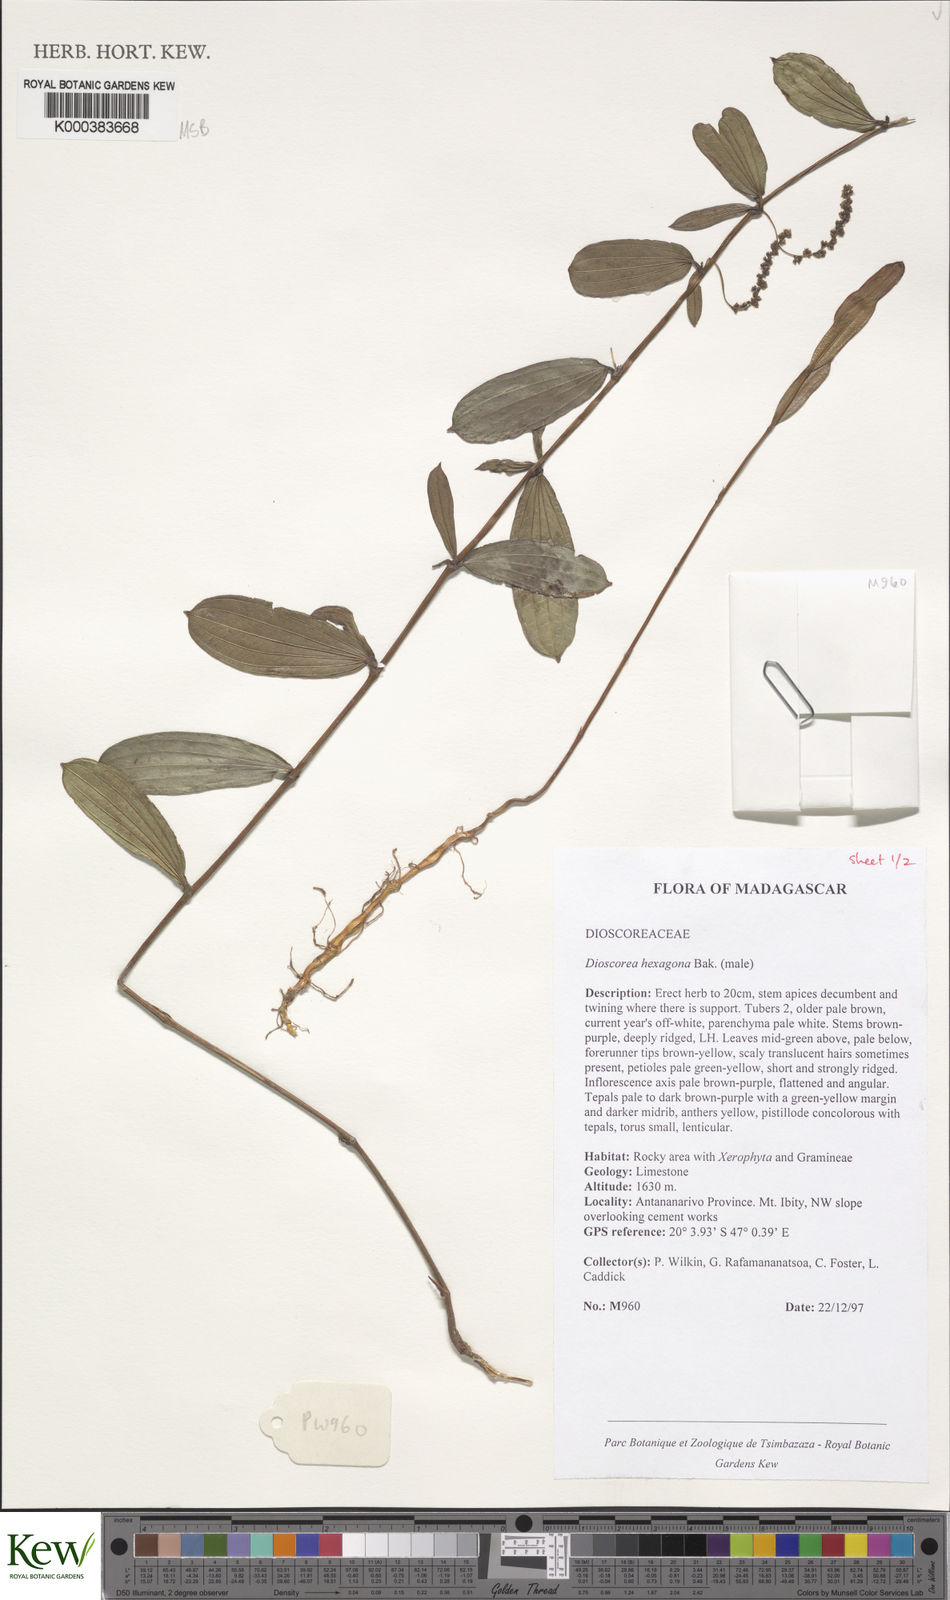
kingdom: Plantae
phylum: Tracheophyta
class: Liliopsida
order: Dioscoreales
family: Dioscoreaceae
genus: Dioscorea
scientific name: Dioscorea hexagona
